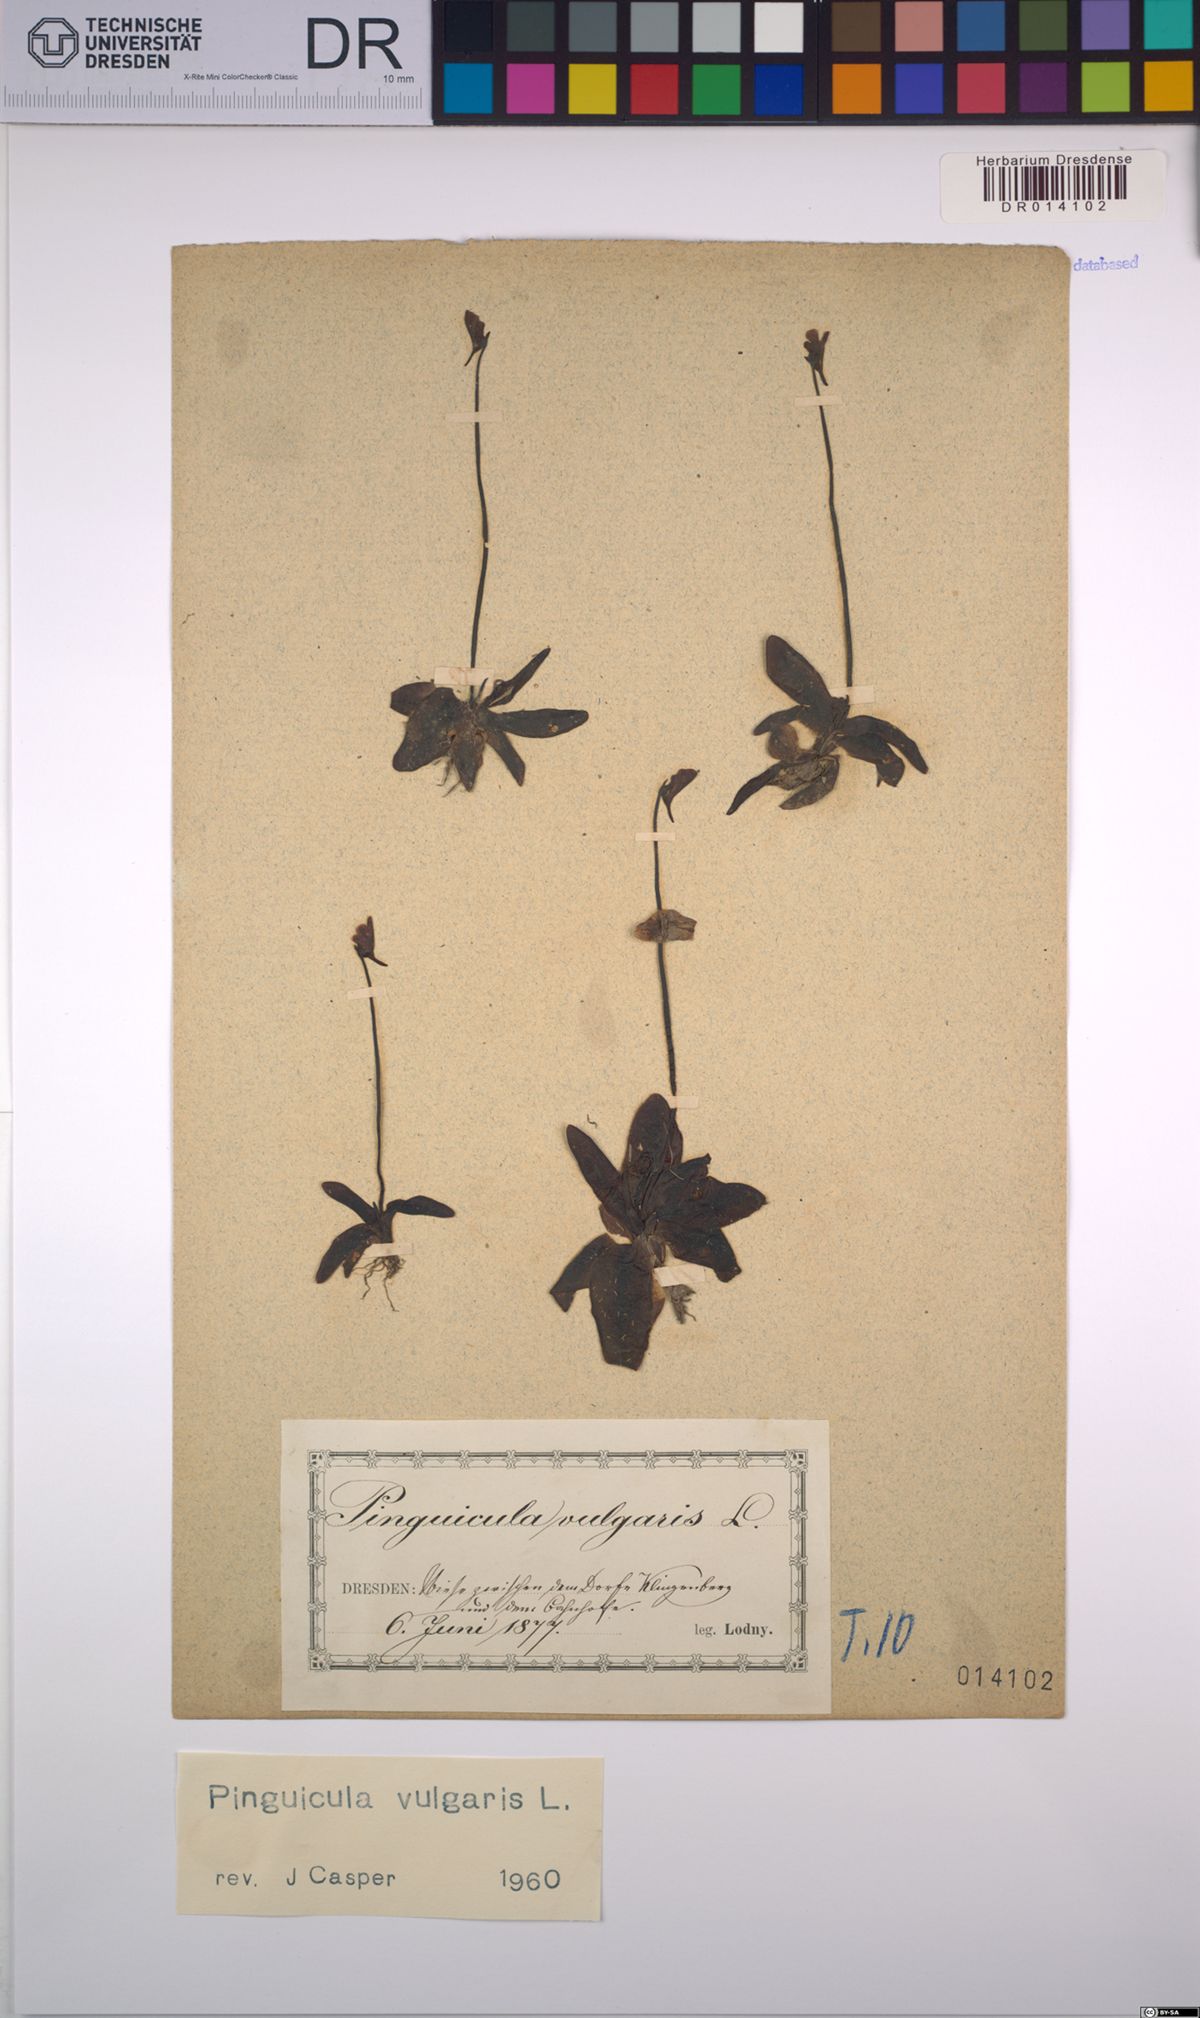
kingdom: Plantae
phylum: Tracheophyta
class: Magnoliopsida
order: Lamiales
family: Lentibulariaceae
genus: Pinguicula
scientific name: Pinguicula vulgaris
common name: Common butterwort
